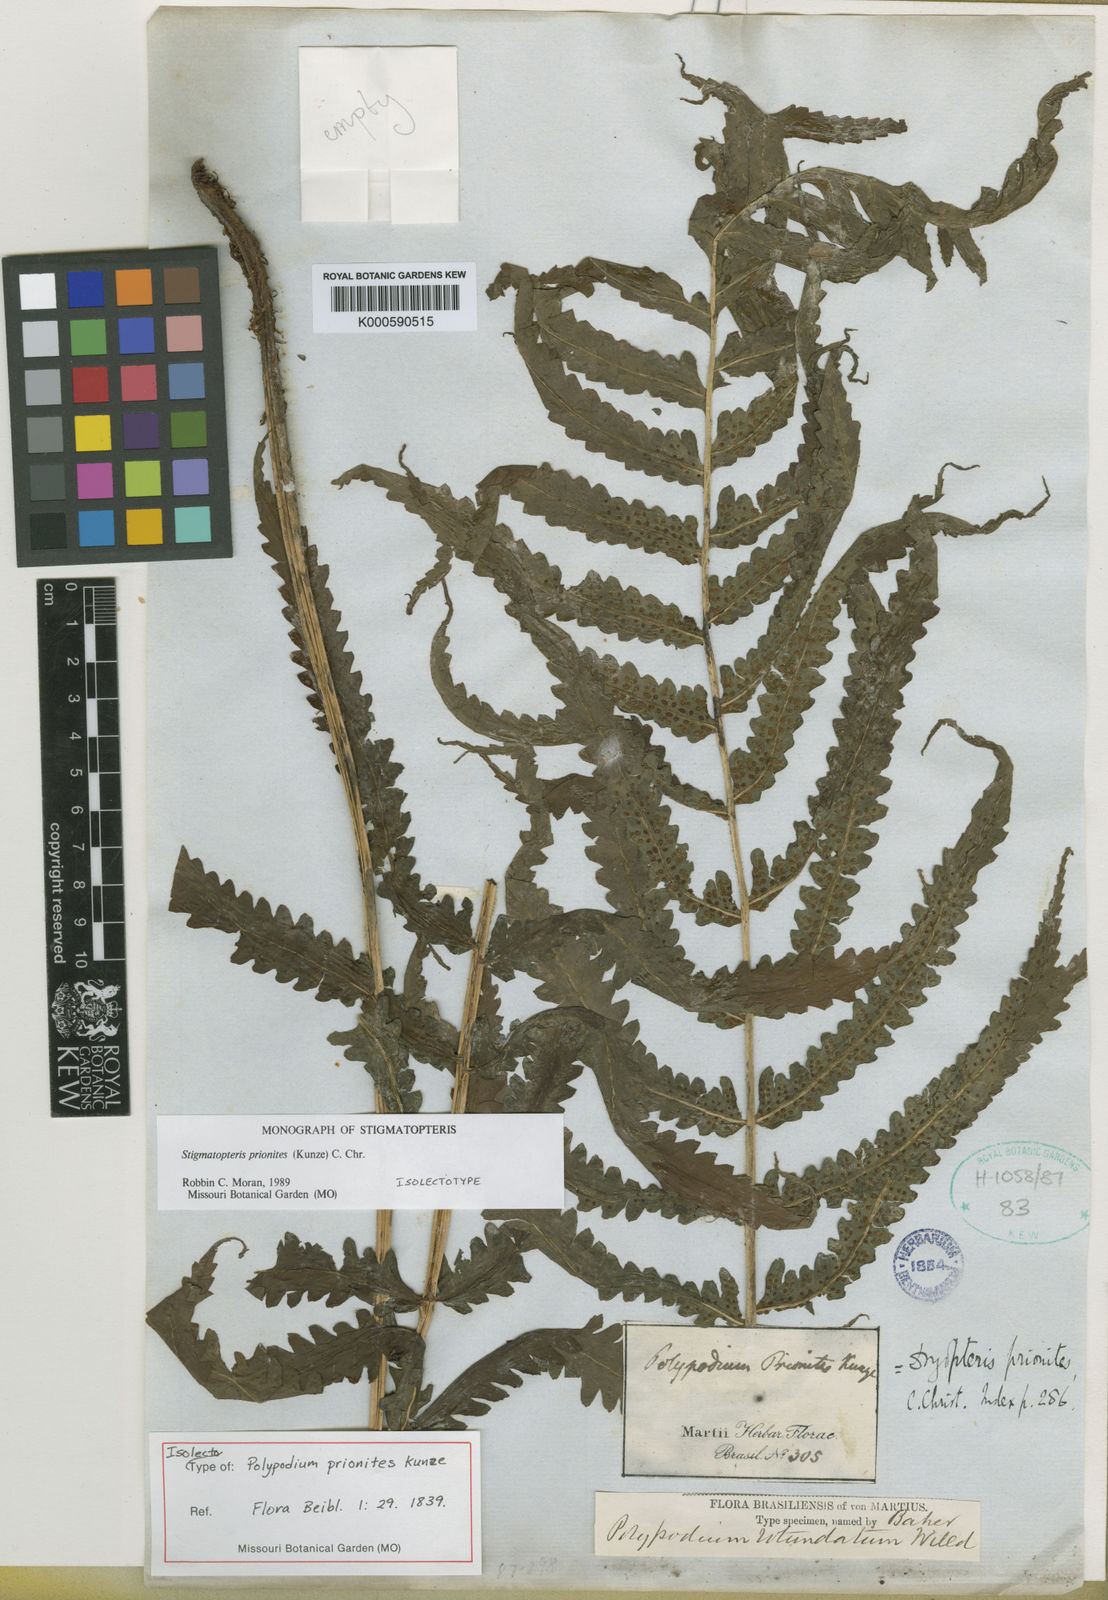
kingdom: Plantae
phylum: Tracheophyta
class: Polypodiopsida
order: Polypodiales
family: Dryopteridaceae
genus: Stigmatopteris
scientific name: Stigmatopteris prionites
